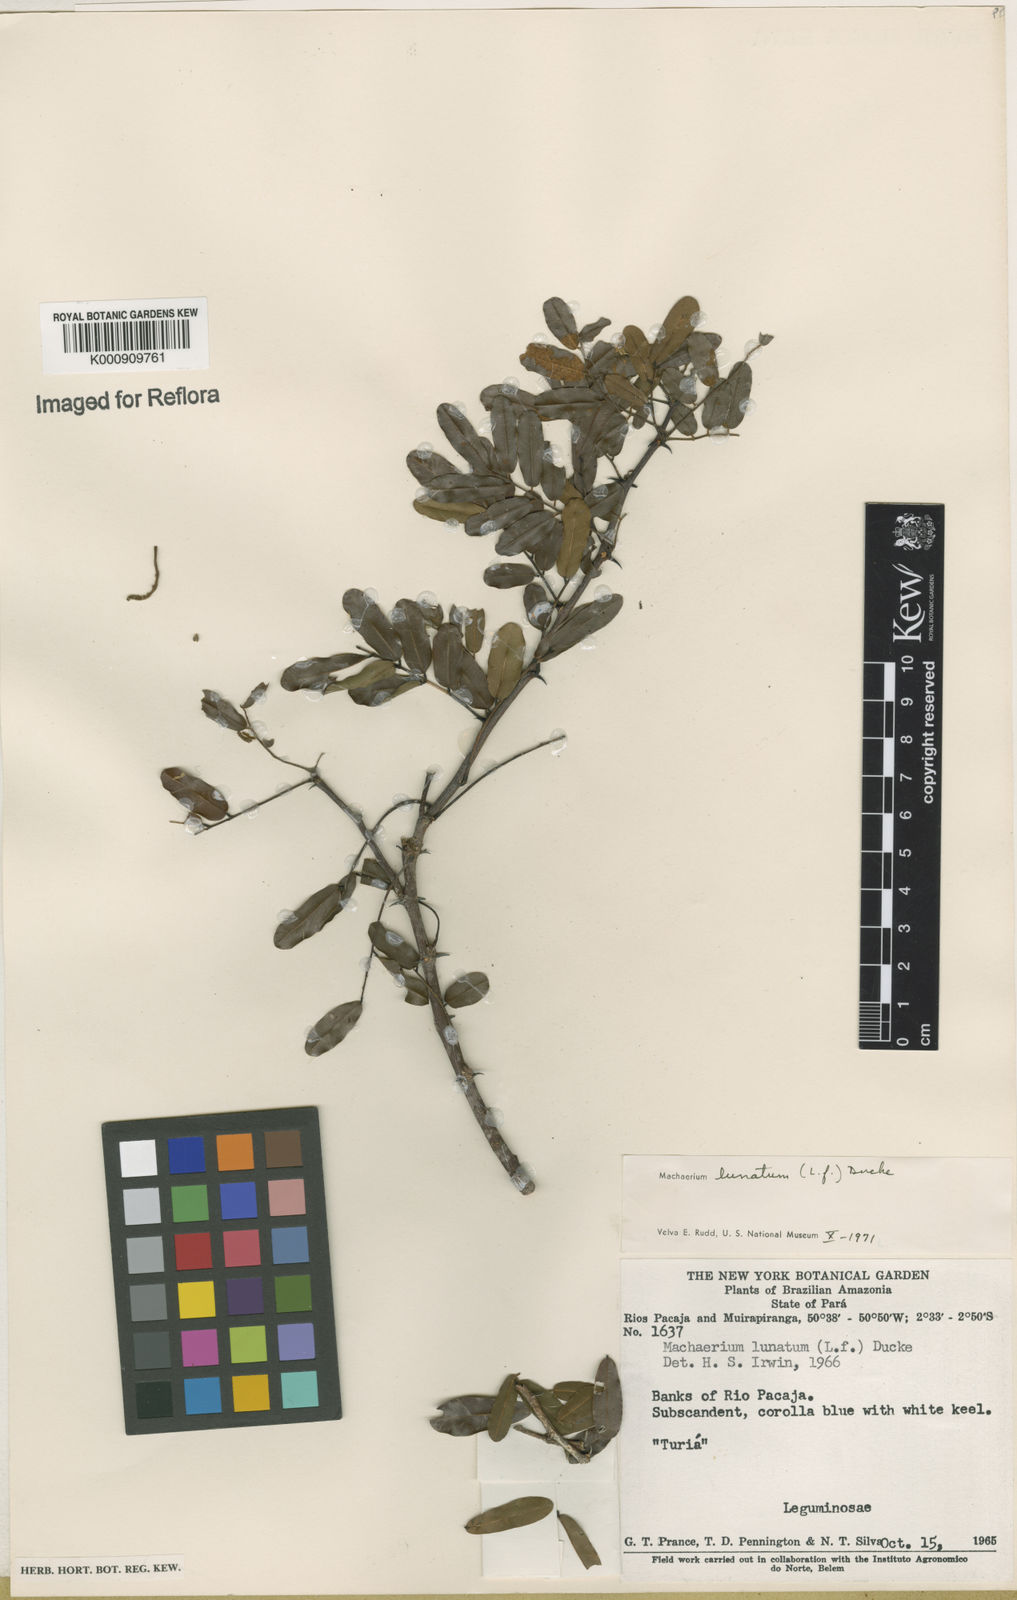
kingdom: Plantae
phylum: Tracheophyta
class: Magnoliopsida
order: Fabales
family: Fabaceae
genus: Machaerium
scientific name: Machaerium lunatum
